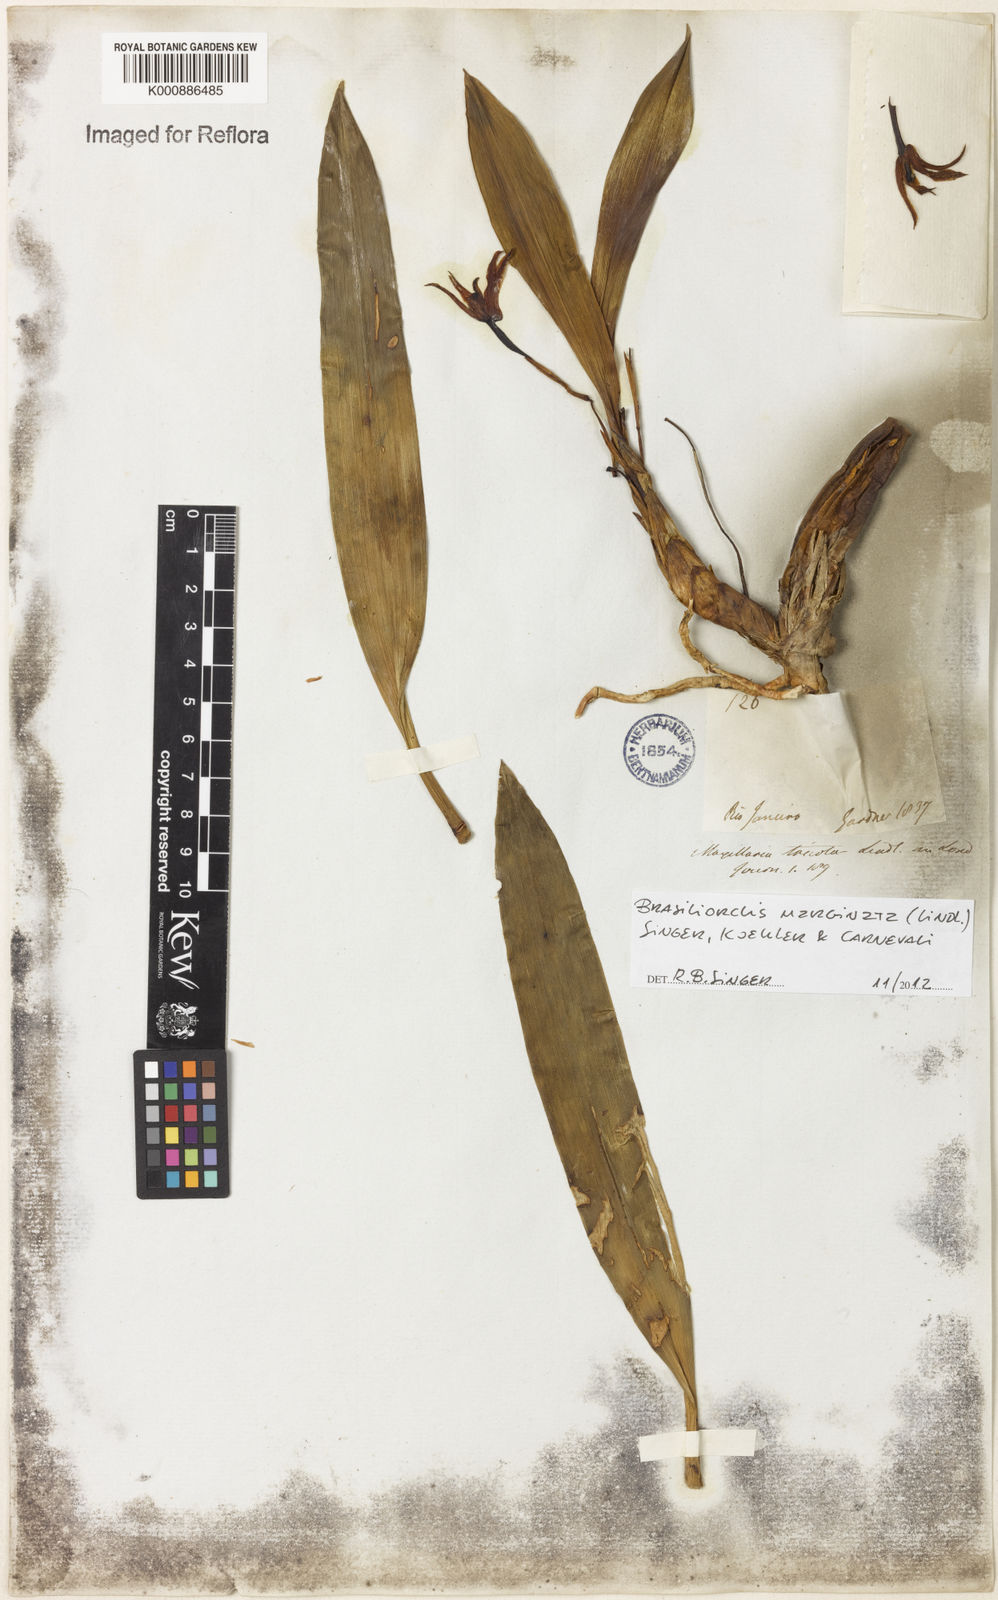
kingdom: Plantae
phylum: Tracheophyta
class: Liliopsida
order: Asparagales
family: Orchidaceae
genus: Maxillaria
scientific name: Maxillaria marginata
